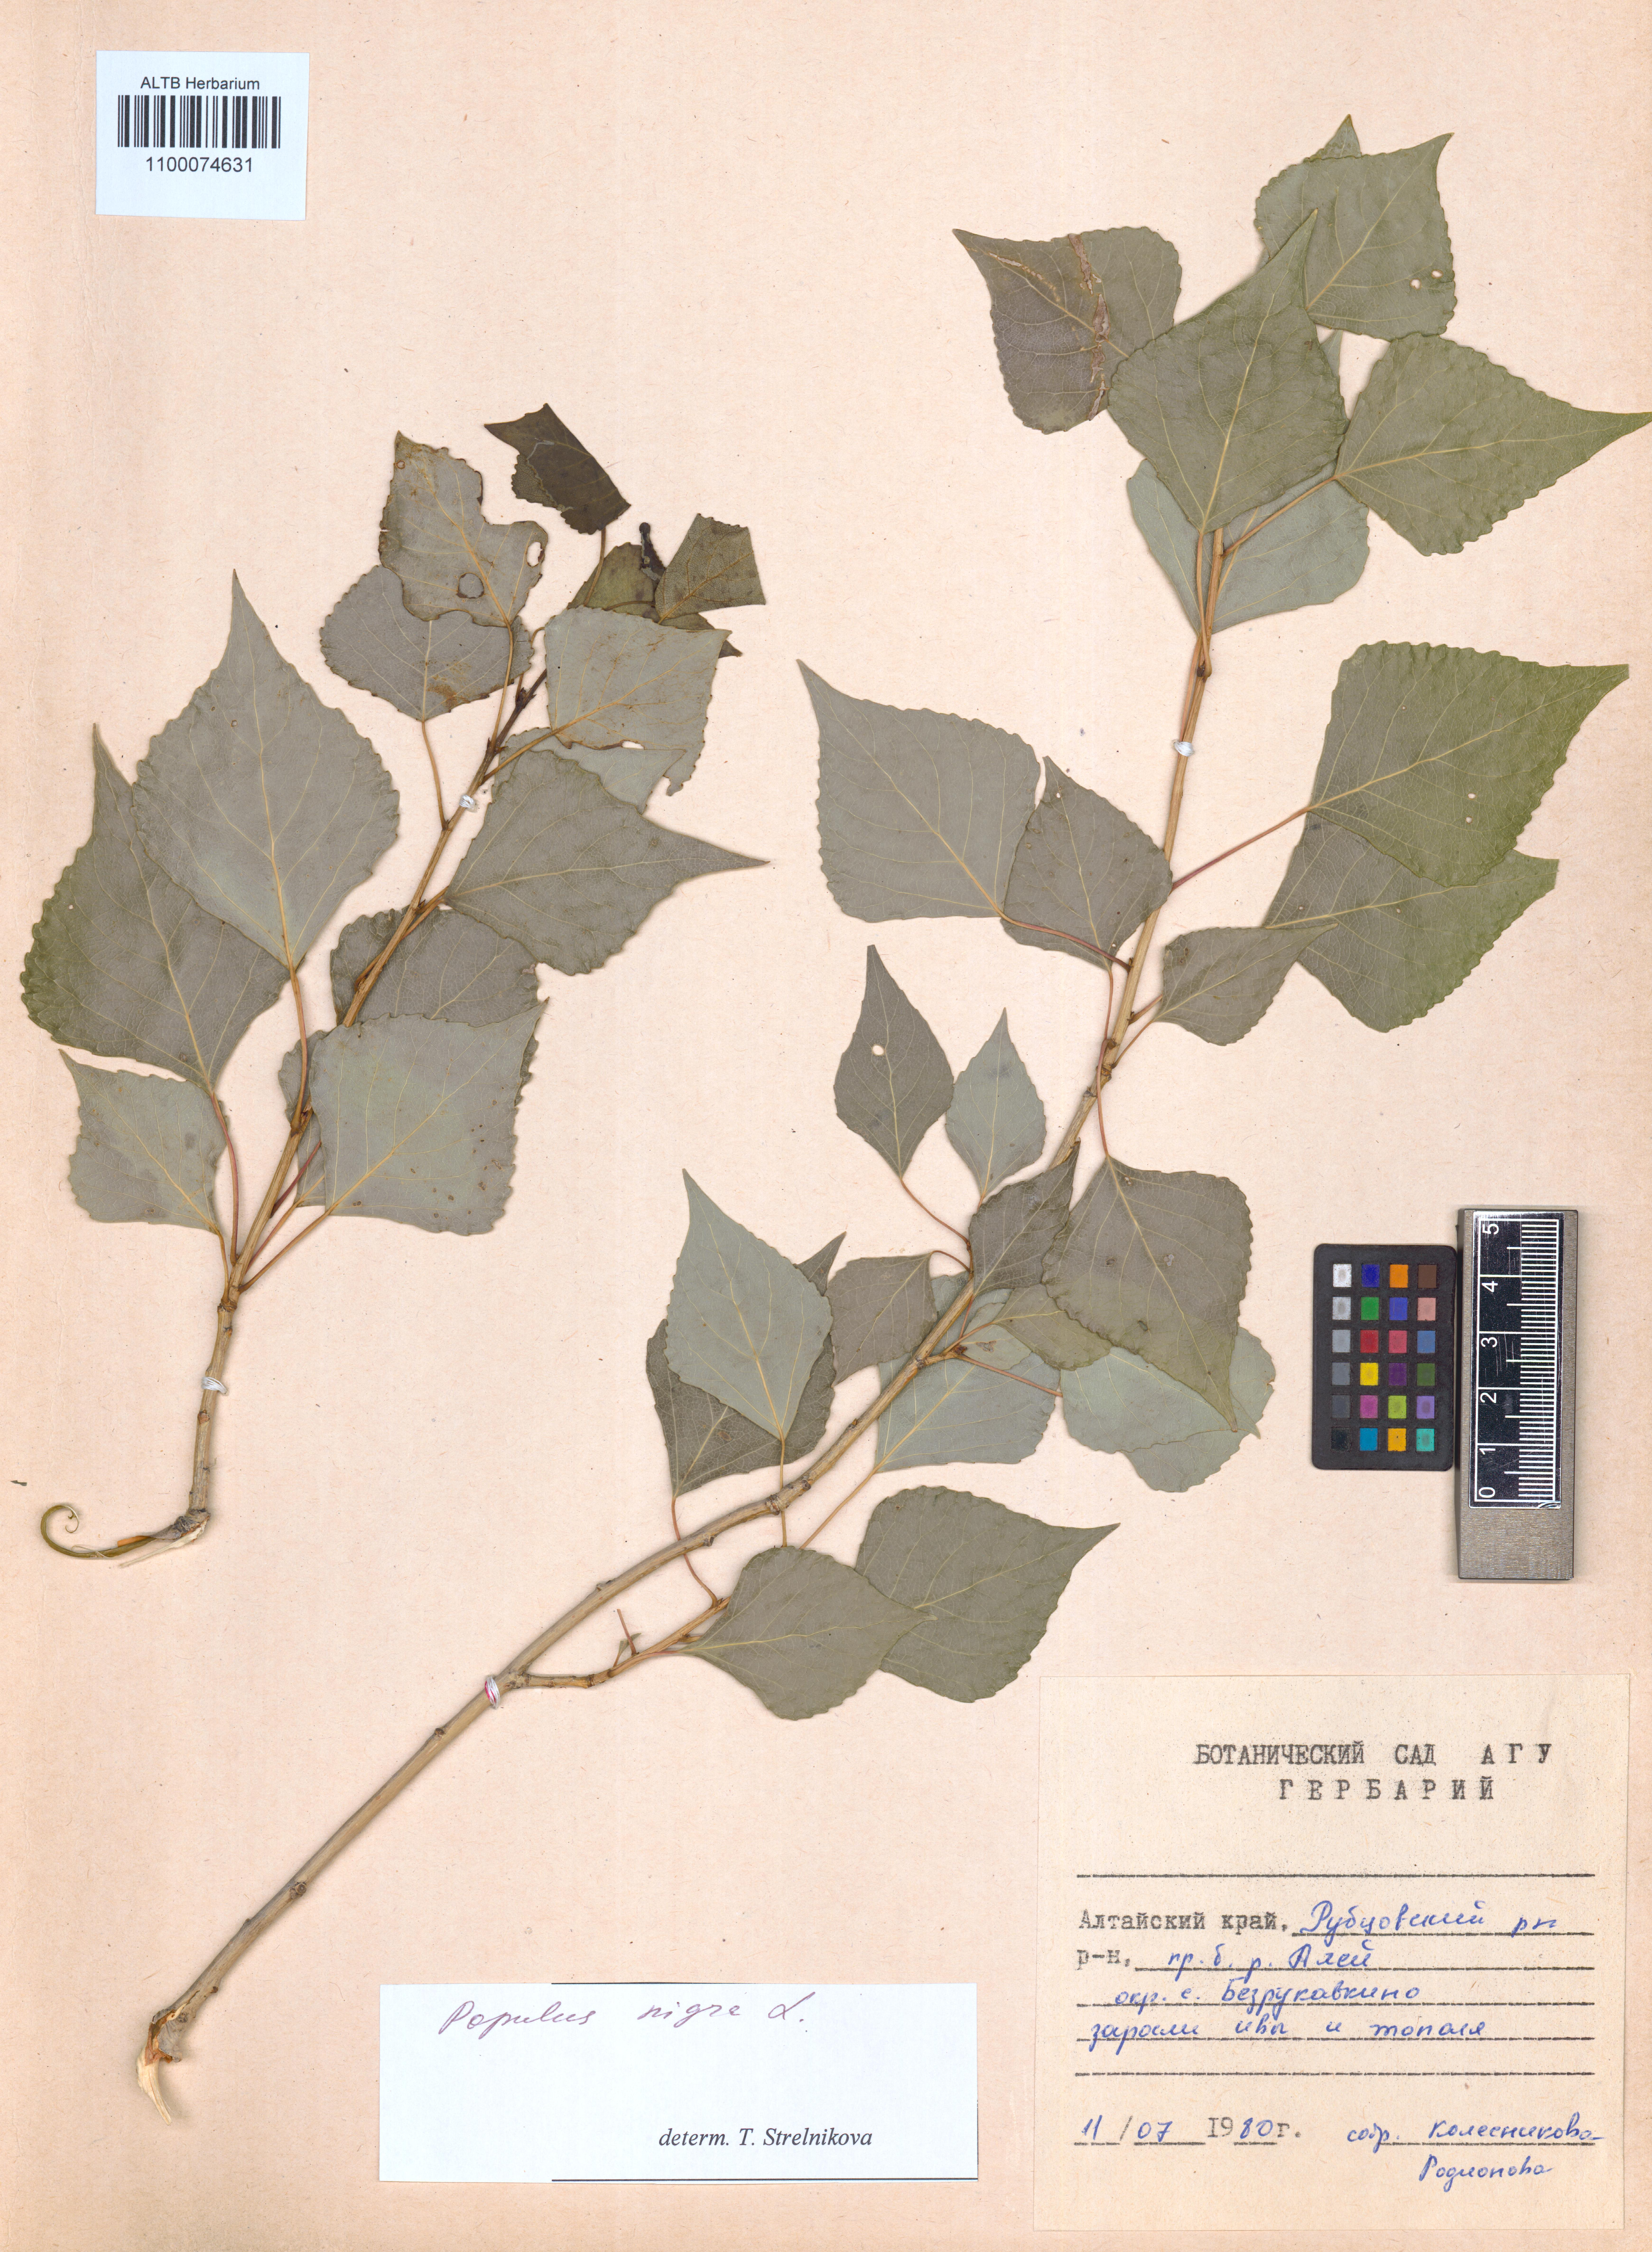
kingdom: Plantae
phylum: Tracheophyta
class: Magnoliopsida
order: Malpighiales
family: Salicaceae
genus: Populus
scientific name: Populus nigra
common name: Black poplar
